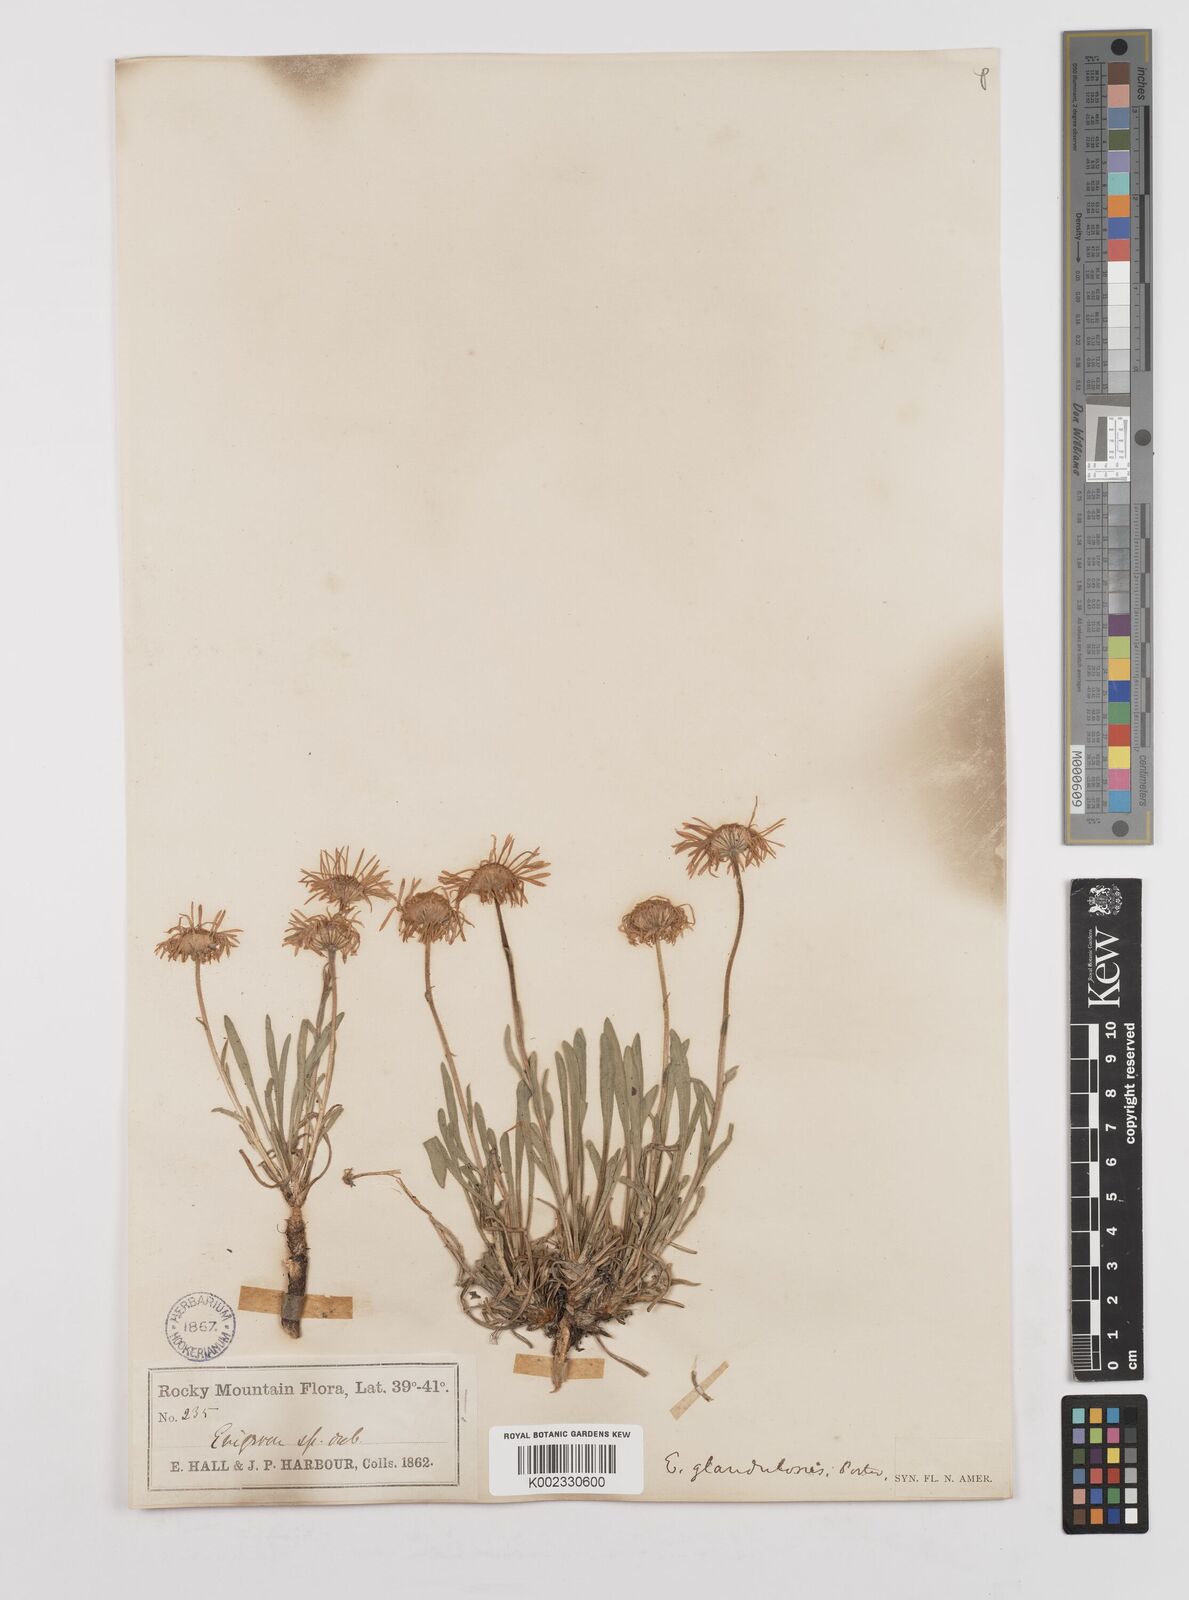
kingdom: Plantae
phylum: Tracheophyta
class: Magnoliopsida
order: Asterales
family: Asteraceae
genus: Erigeron
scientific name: Erigeron vetensis
